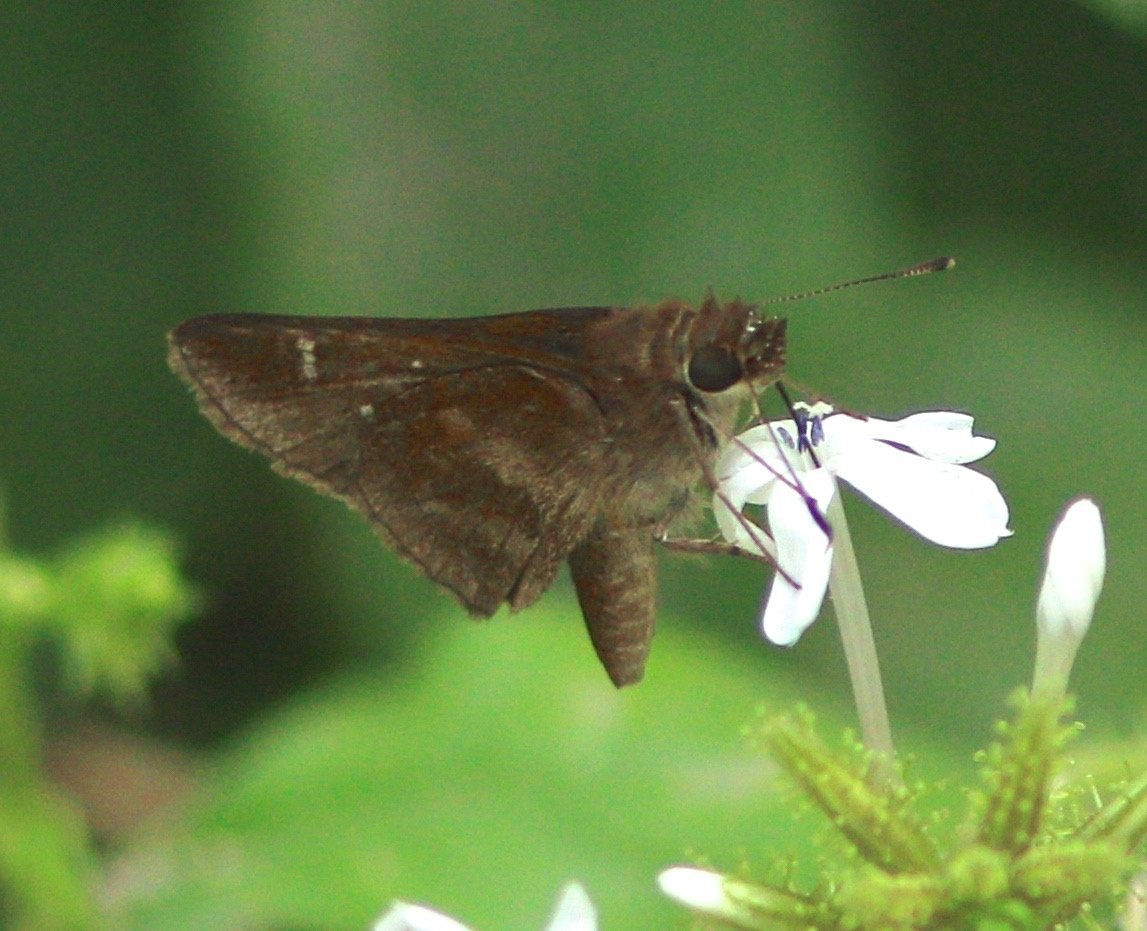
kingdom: Animalia
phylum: Arthropoda
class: Insecta
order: Lepidoptera
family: Hesperiidae
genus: Cymaenes
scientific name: Cymaenes odilia
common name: Fawn-spotted Skipper
